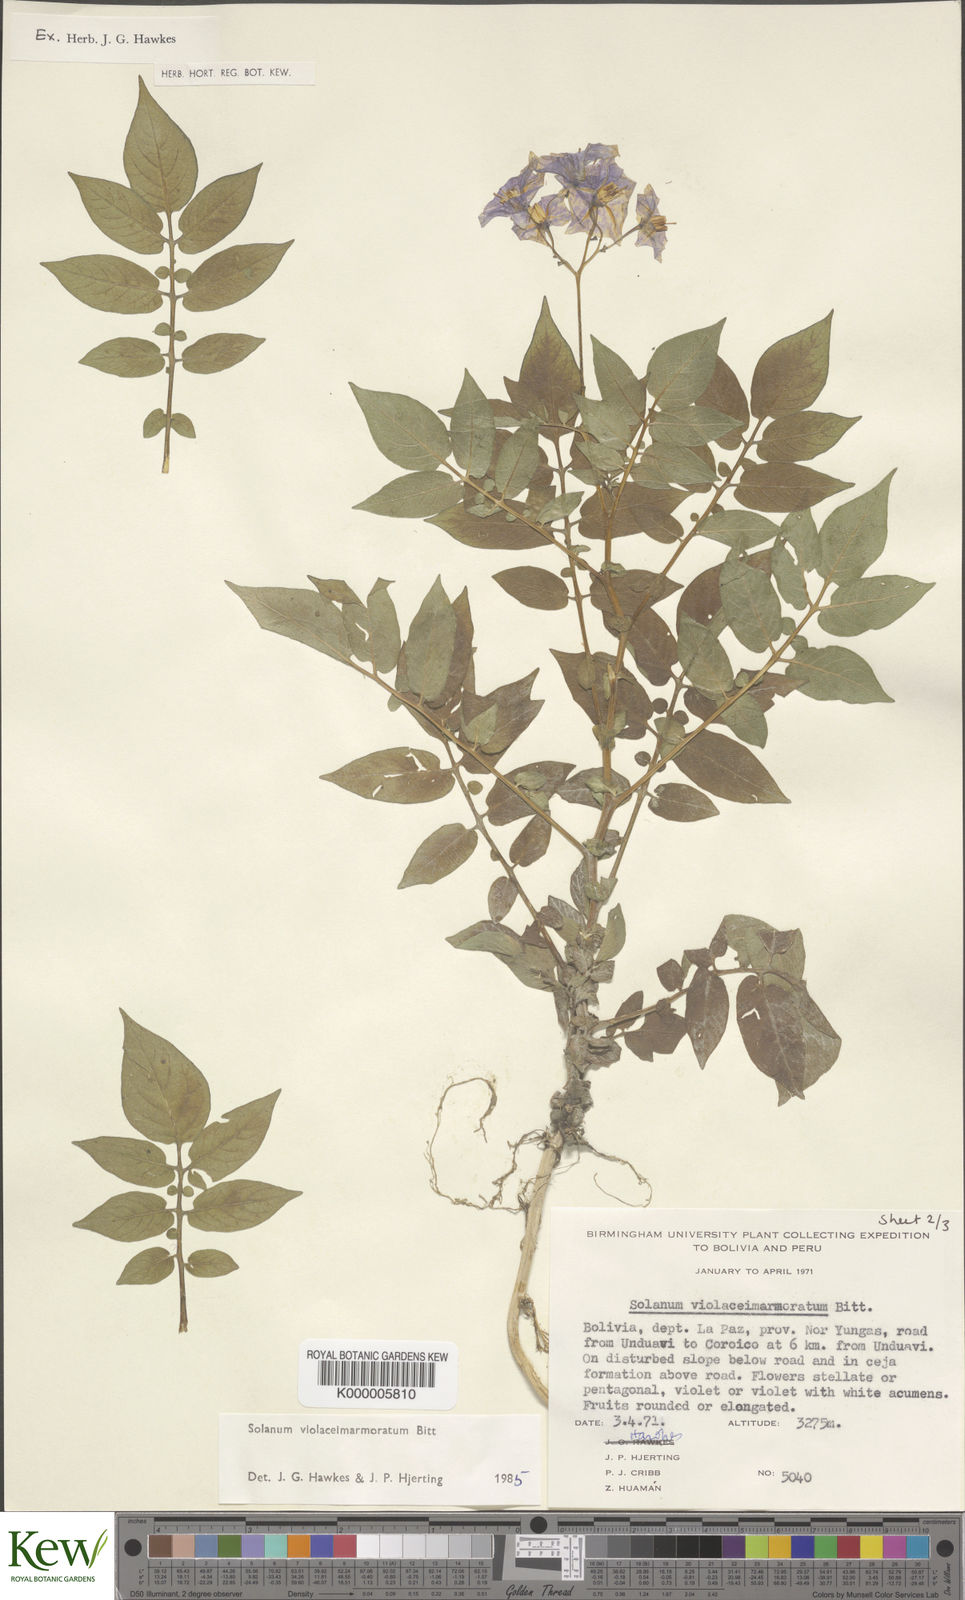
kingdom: Plantae
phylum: Tracheophyta
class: Magnoliopsida
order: Solanales
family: Solanaceae
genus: Solanum
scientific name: Solanum violaceimarmoratum
